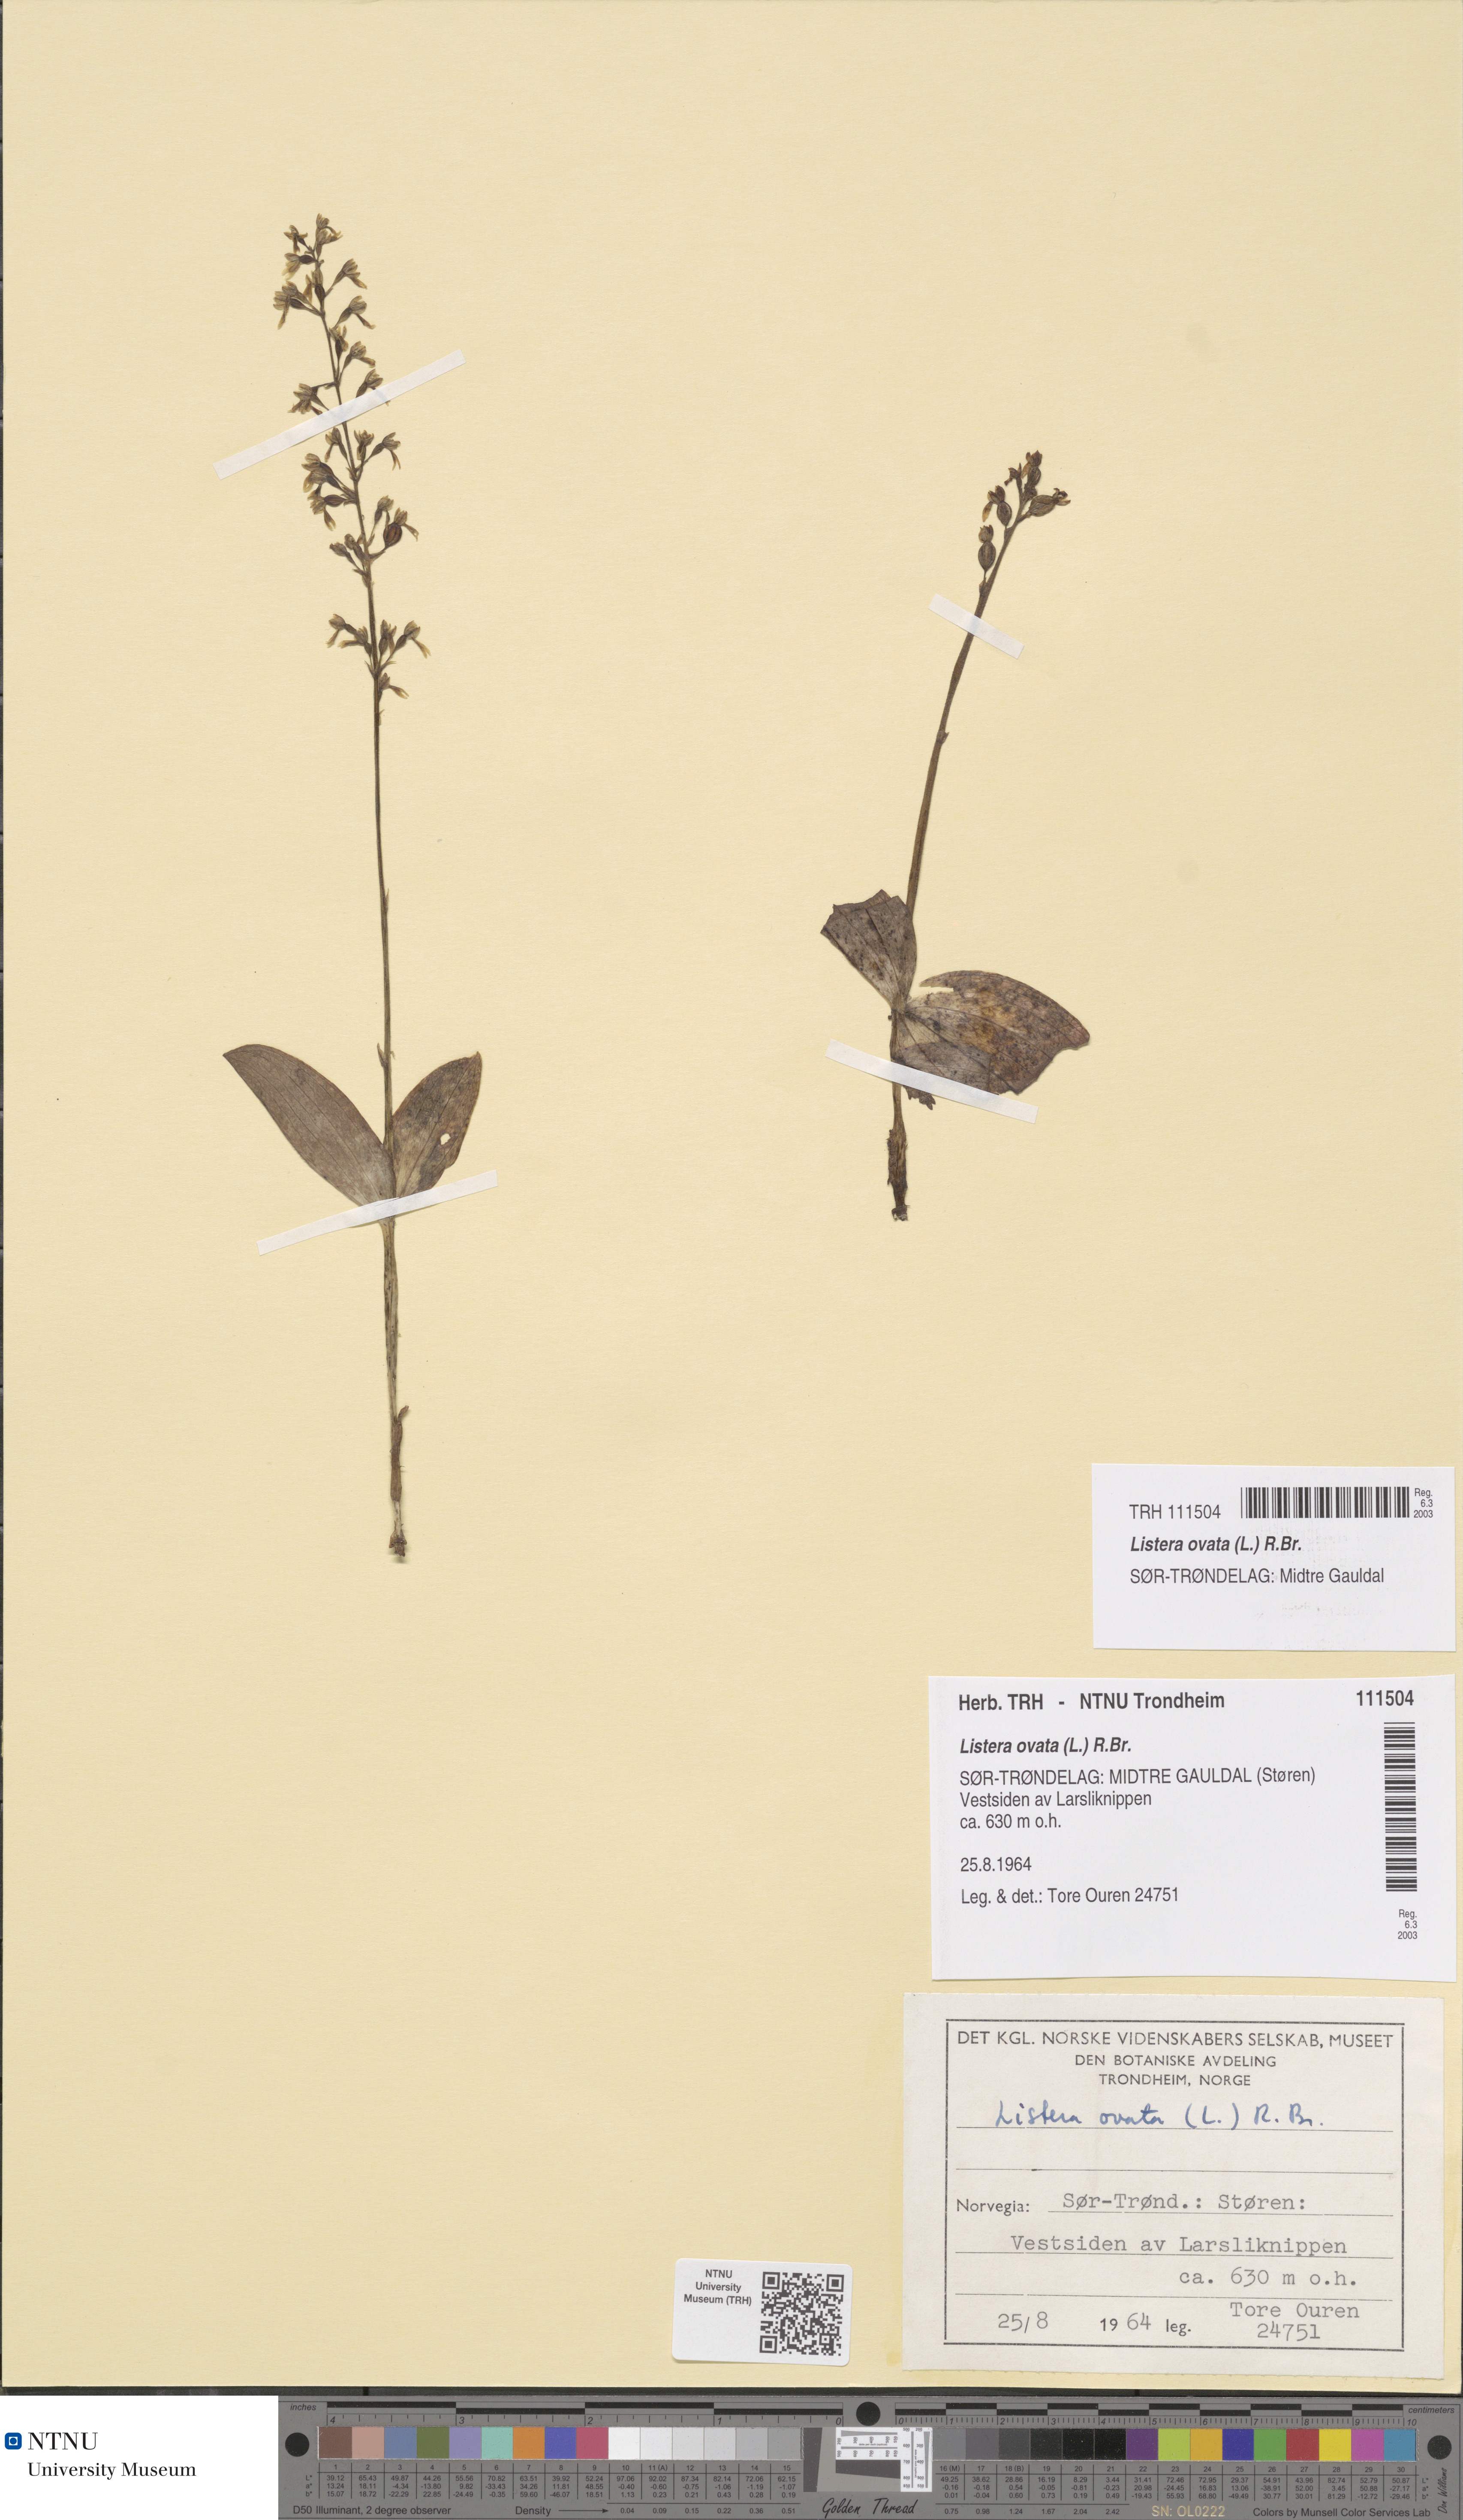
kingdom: Plantae
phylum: Tracheophyta
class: Liliopsida
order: Asparagales
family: Orchidaceae
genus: Neottia
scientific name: Neottia ovata
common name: Common twayblade
